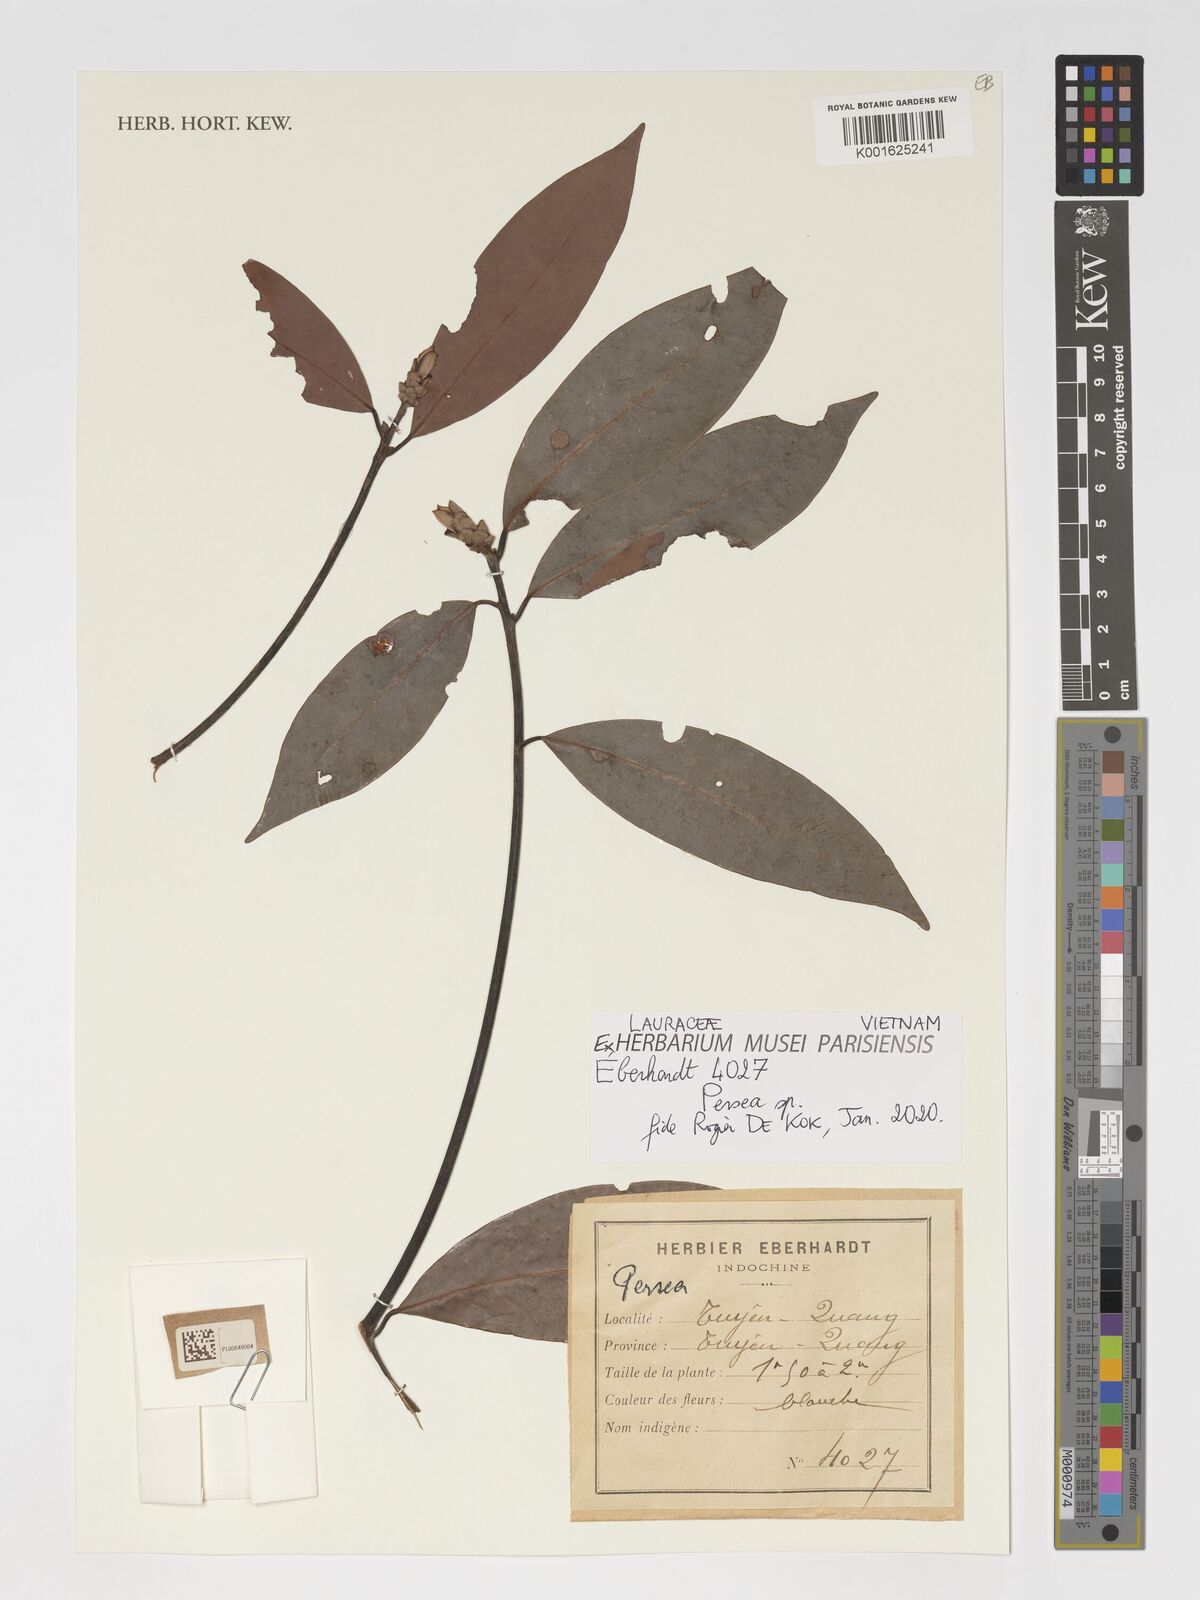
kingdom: Plantae
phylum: Tracheophyta
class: Magnoliopsida
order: Laurales
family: Lauraceae
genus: Persea
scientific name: Persea
